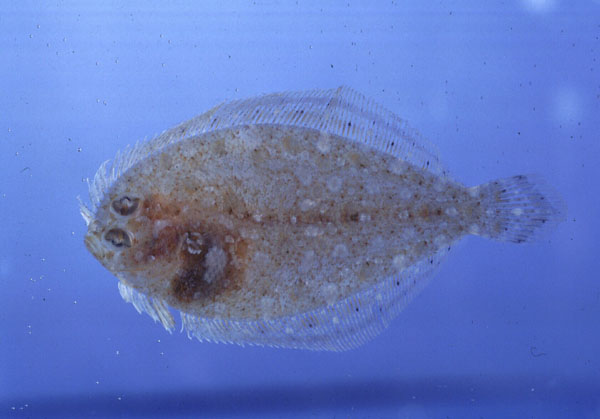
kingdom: Animalia
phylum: Chordata
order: Pleuronectiformes
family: Bothidae
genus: Engyprosopon
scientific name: Engyprosopon
